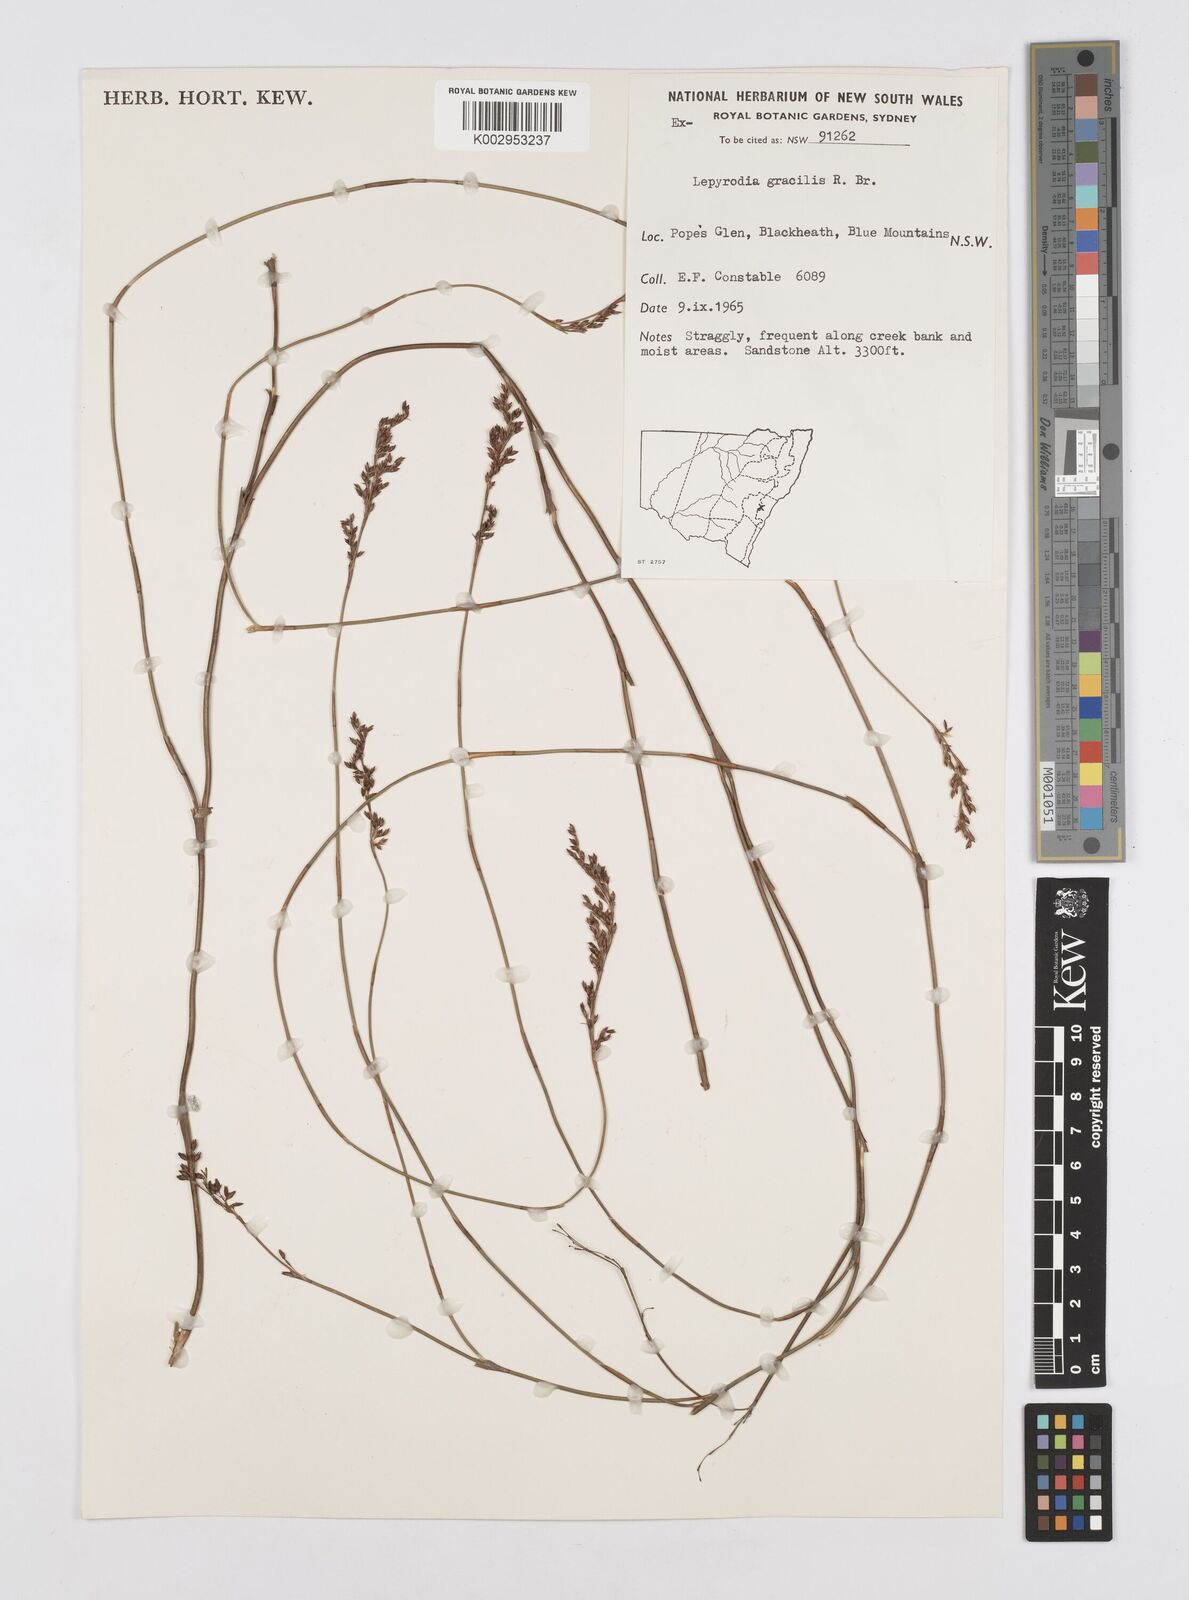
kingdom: Plantae
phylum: Tracheophyta
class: Liliopsida
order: Poales
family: Restionaceae
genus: Sporadanthus
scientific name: Sporadanthus gracilis
